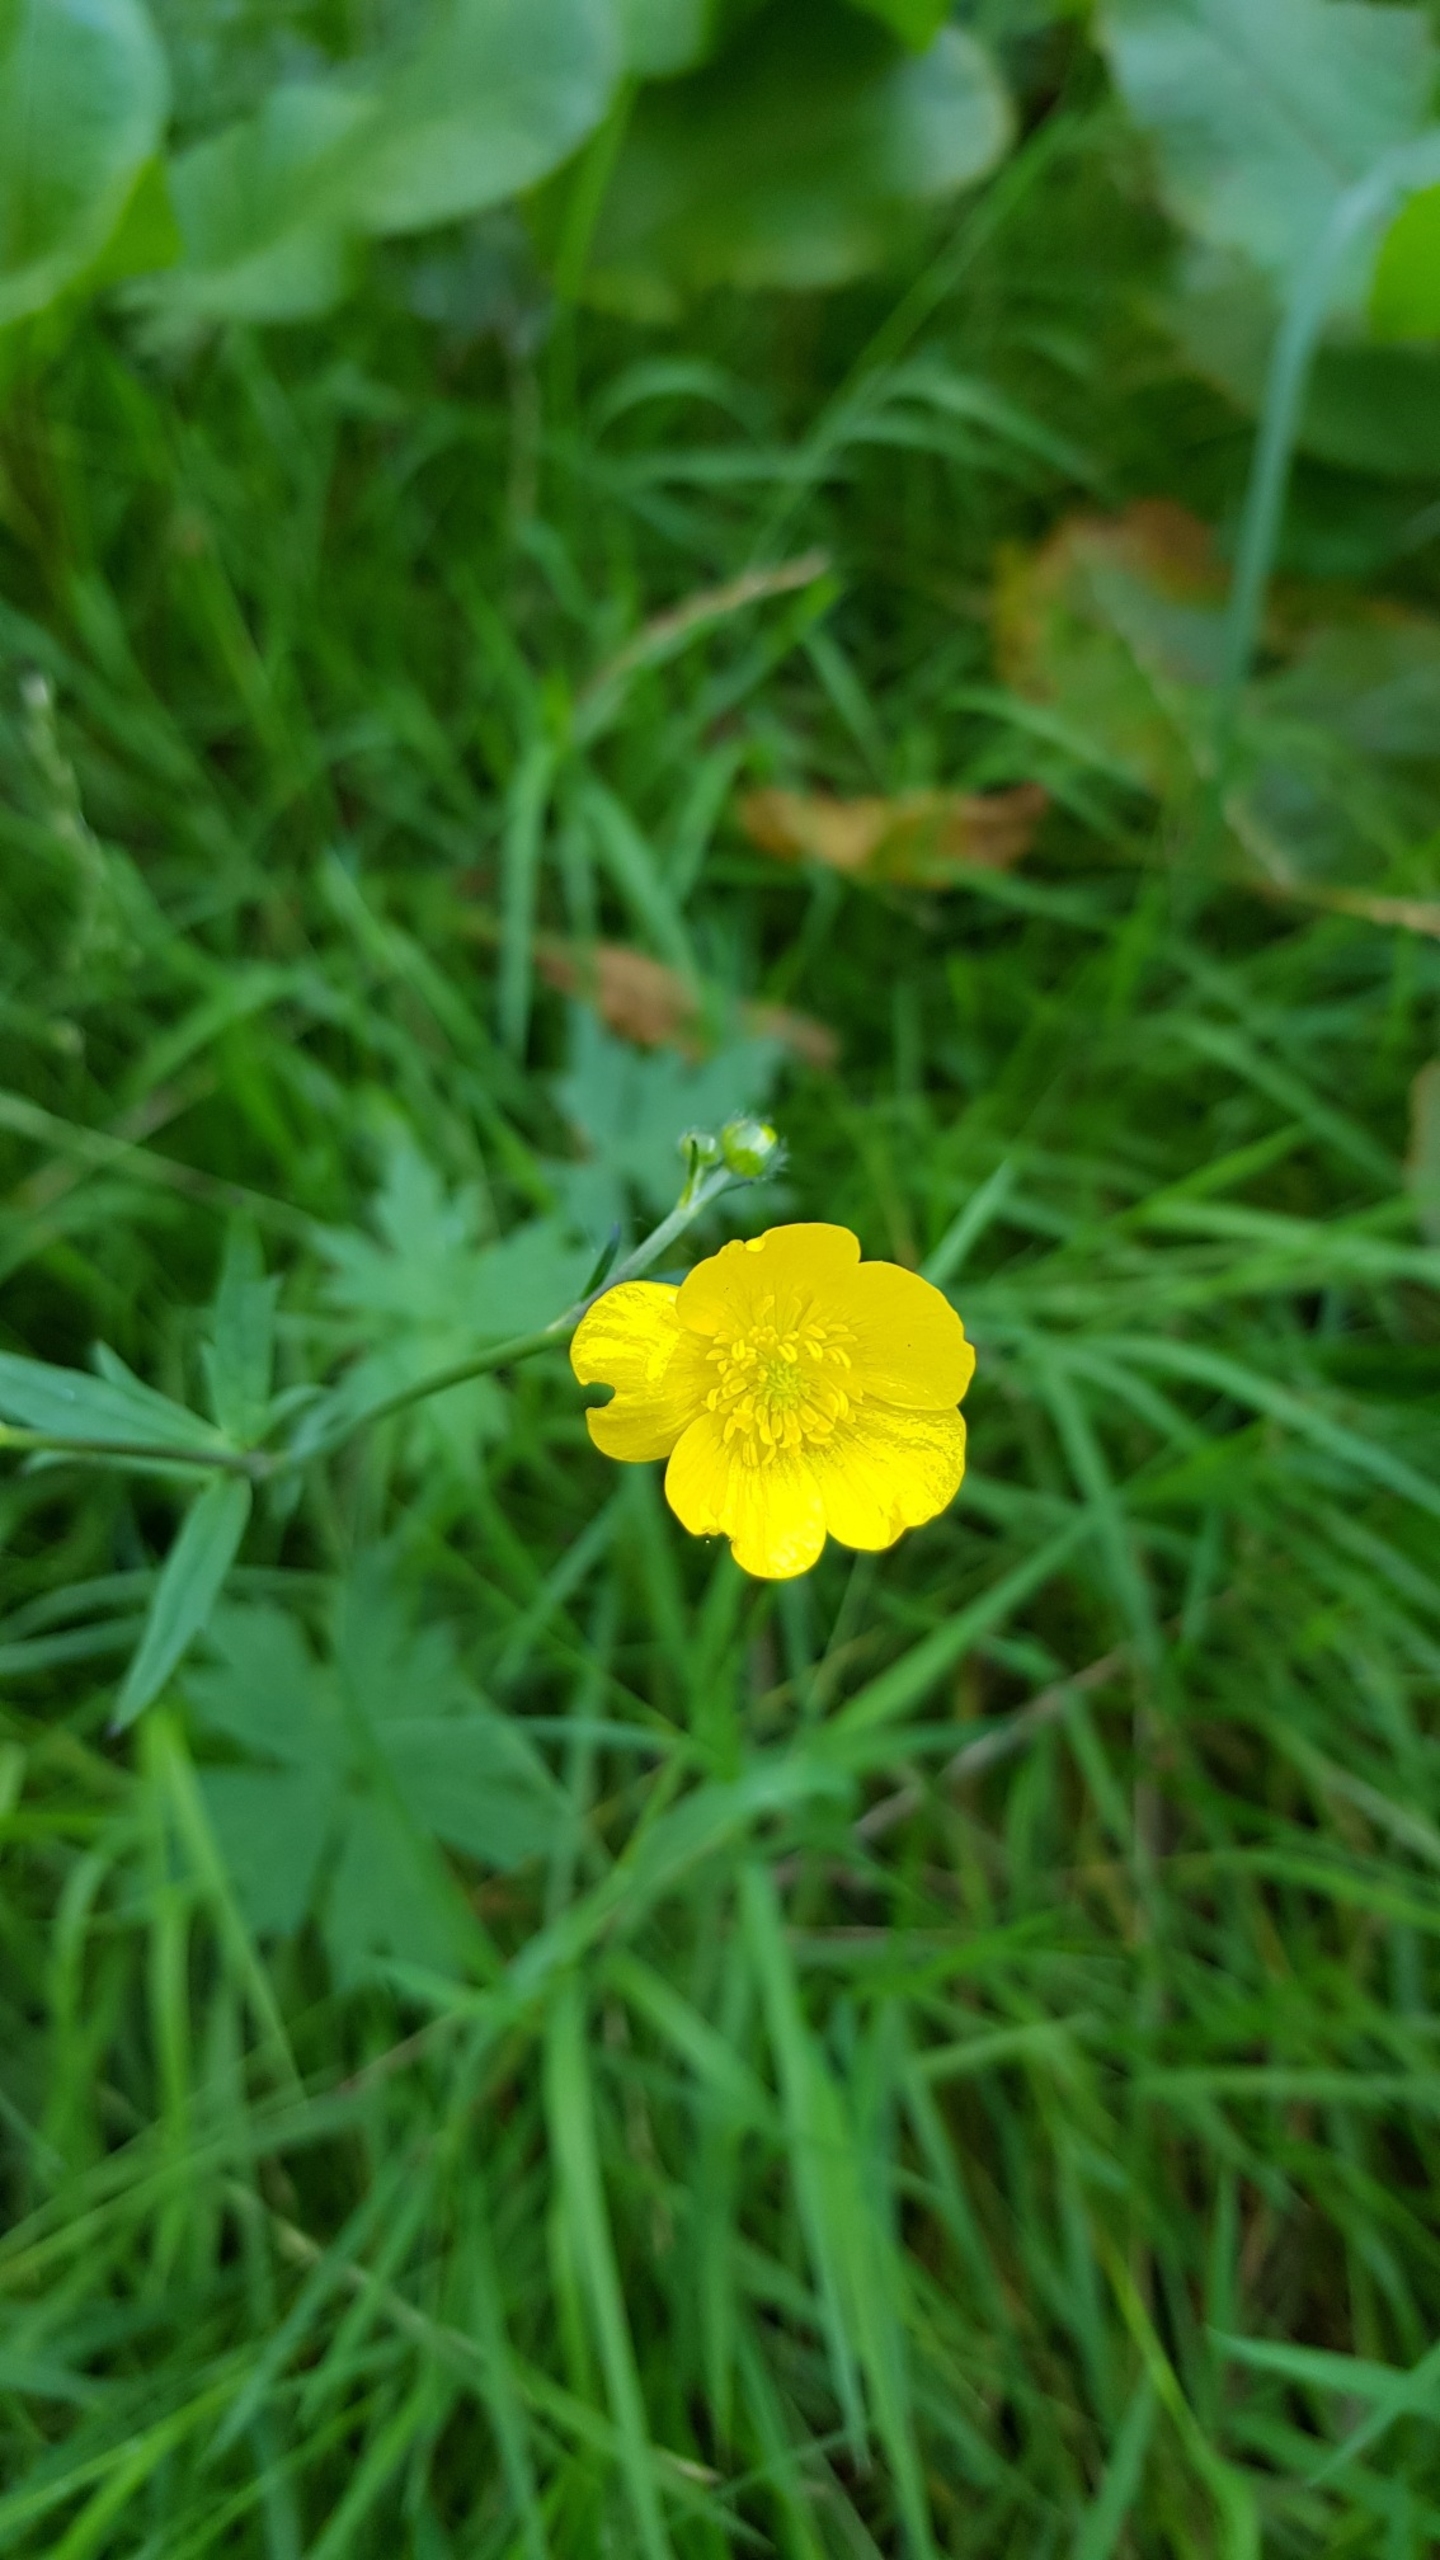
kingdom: Plantae
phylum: Tracheophyta
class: Magnoliopsida
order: Ranunculales
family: Ranunculaceae
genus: Ranunculus
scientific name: Ranunculus acris
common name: Bidende ranunkel
